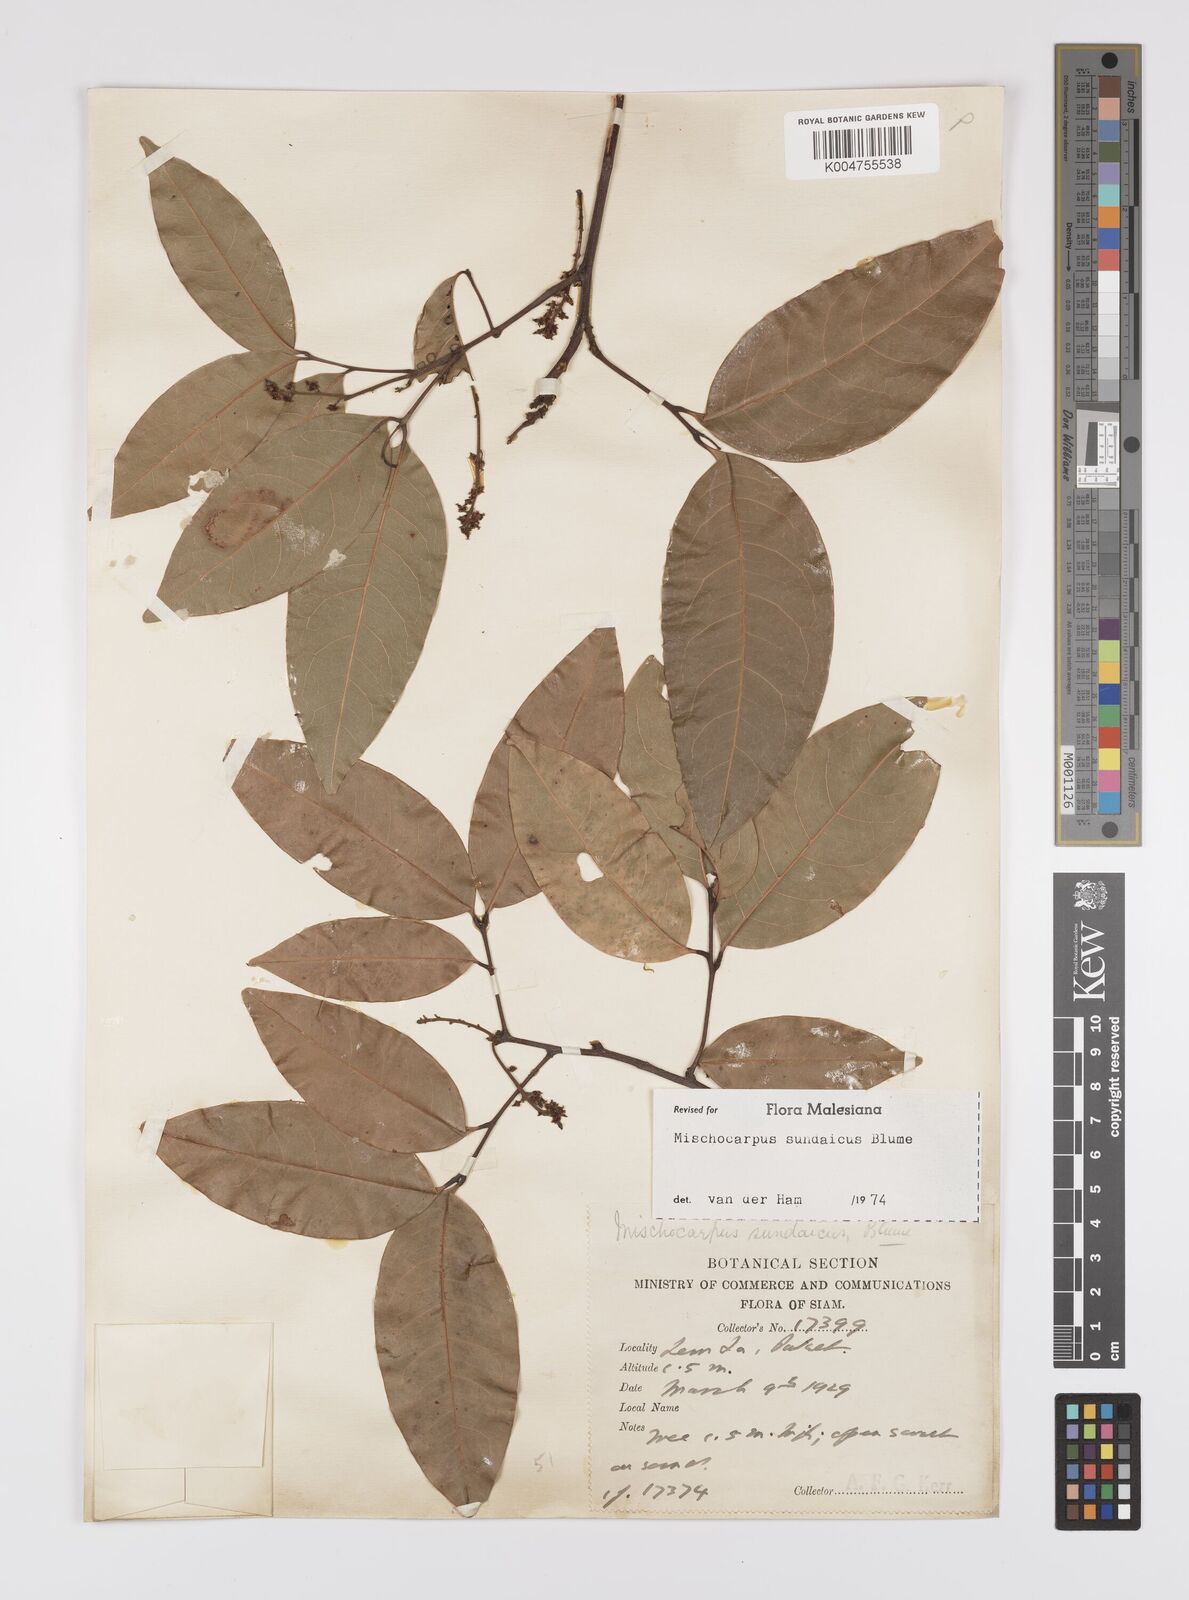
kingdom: Plantae
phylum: Tracheophyta
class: Magnoliopsida
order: Sapindales
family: Sapindaceae
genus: Mischocarpus
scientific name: Mischocarpus sundaicus
